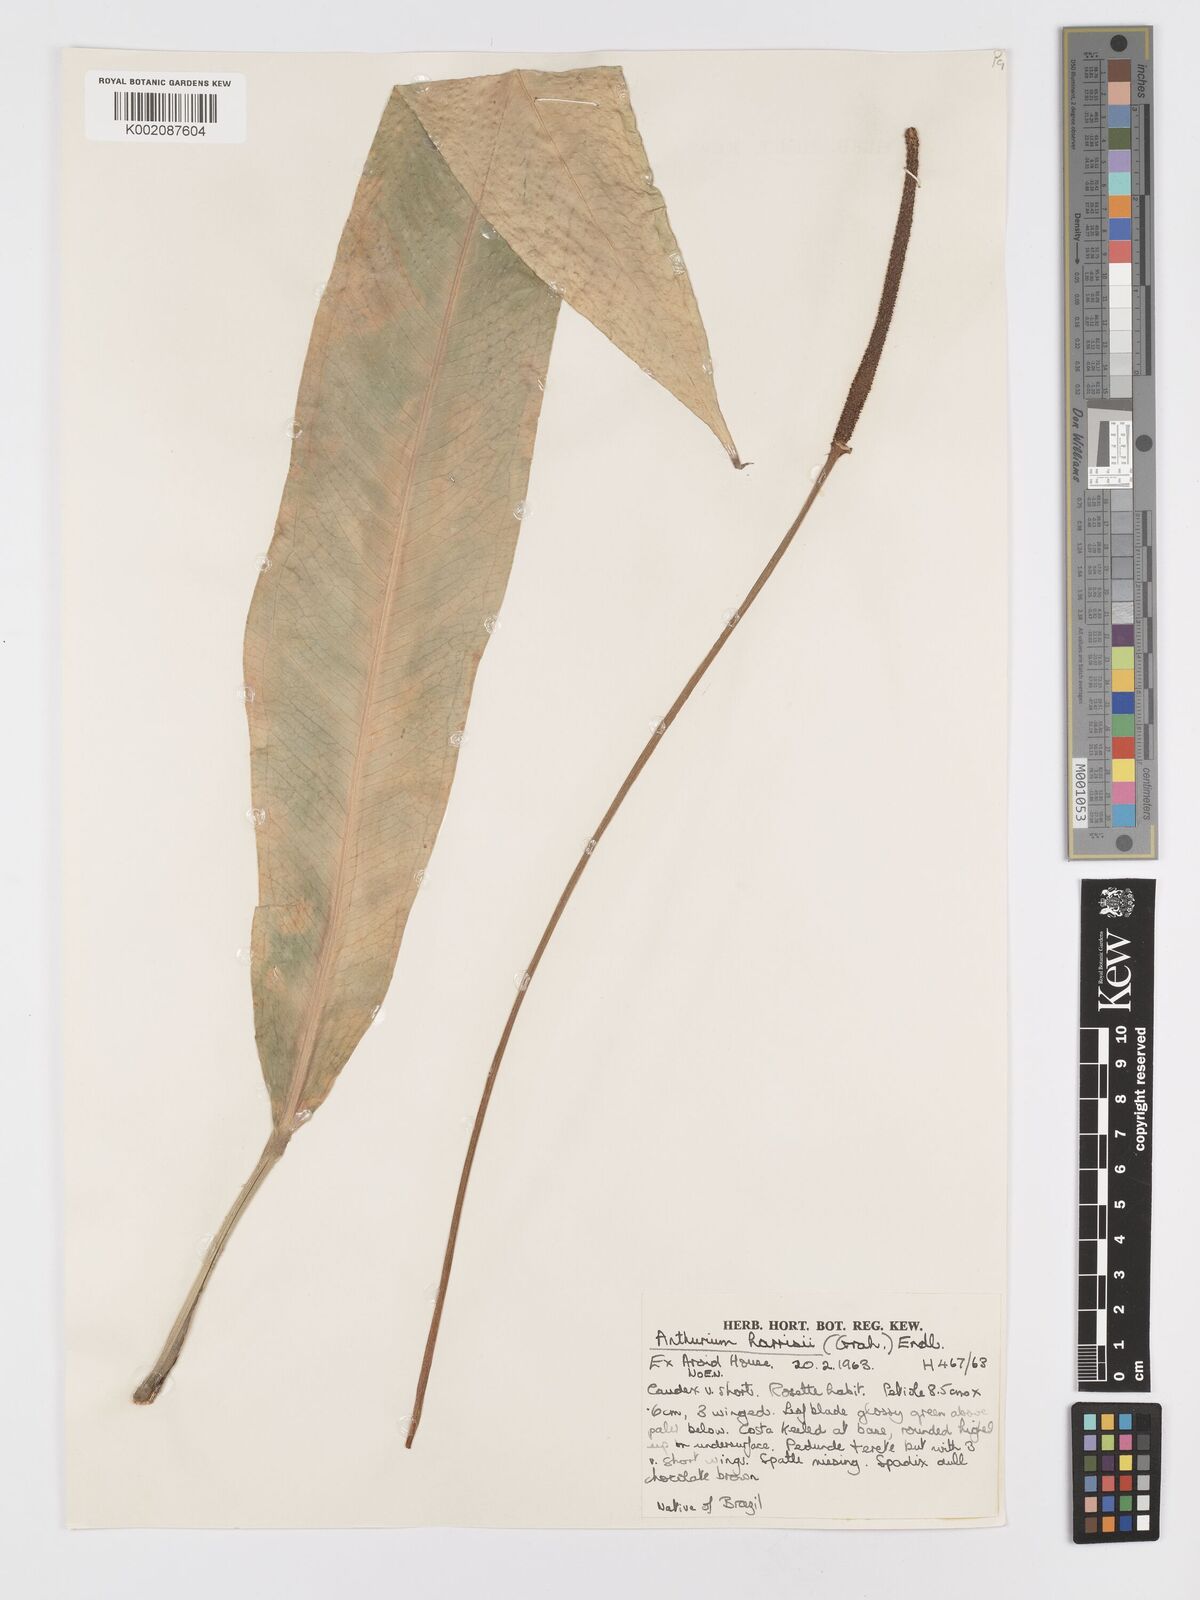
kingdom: Plantae
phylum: Tracheophyta
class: Liliopsida
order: Alismatales
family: Araceae
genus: Anthurium
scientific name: Anthurium harrisii
